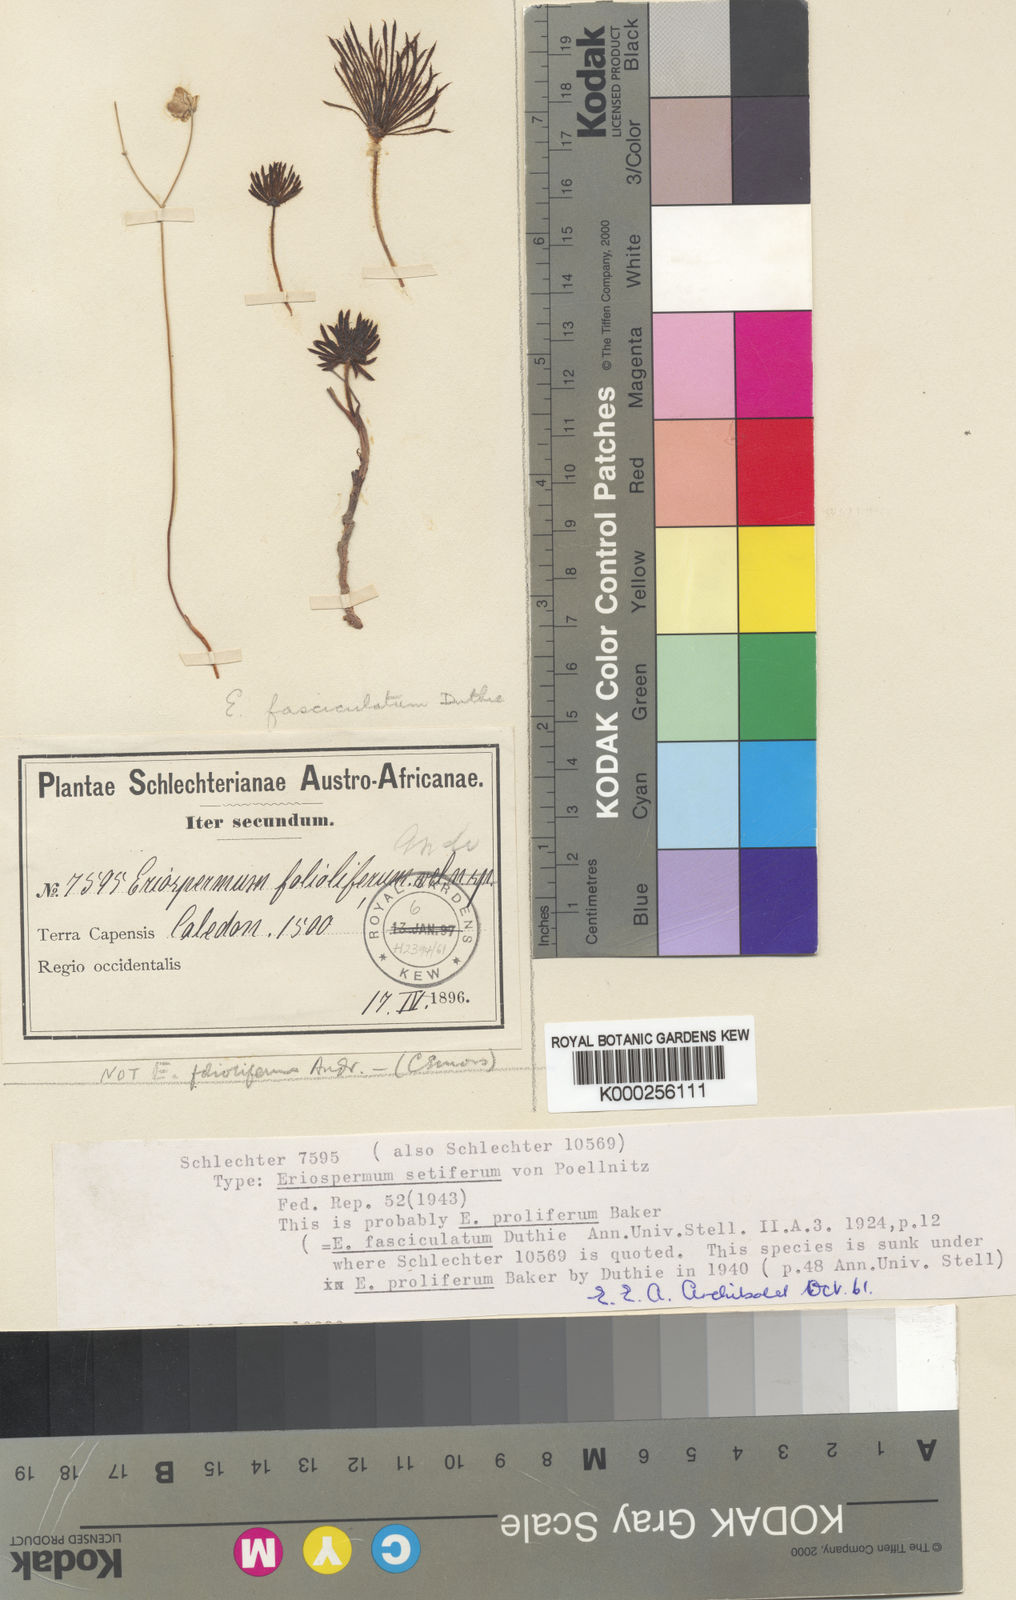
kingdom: Plantae
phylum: Tracheophyta
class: Liliopsida
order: Asparagales
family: Asparagaceae
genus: Eriospermum
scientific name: Eriospermum proliferum
